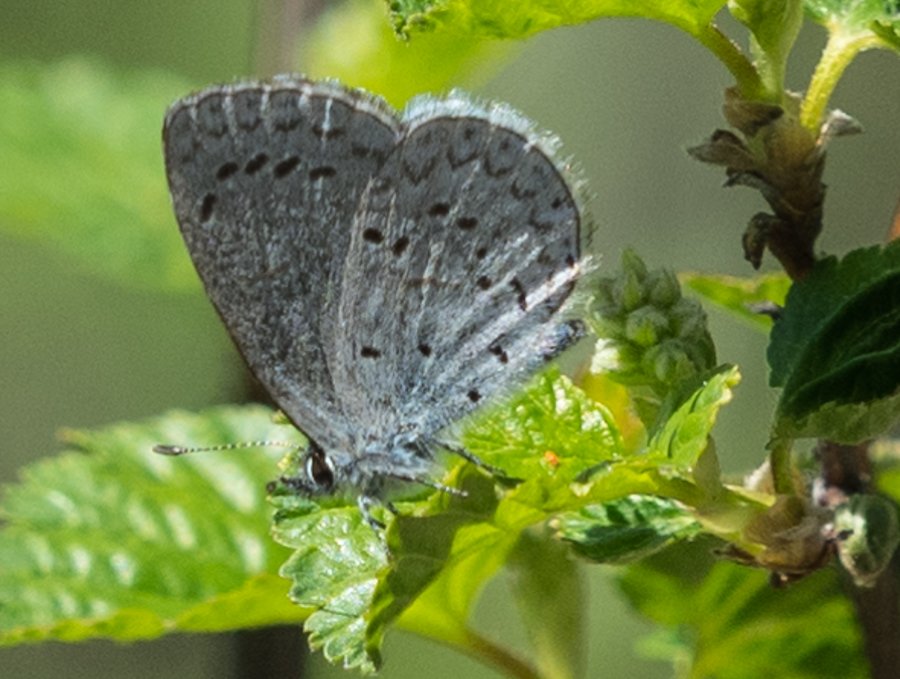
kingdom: Animalia
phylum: Arthropoda
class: Insecta
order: Lepidoptera
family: Lycaenidae
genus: Celastrina
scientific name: Celastrina ladon
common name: Echo Azure
